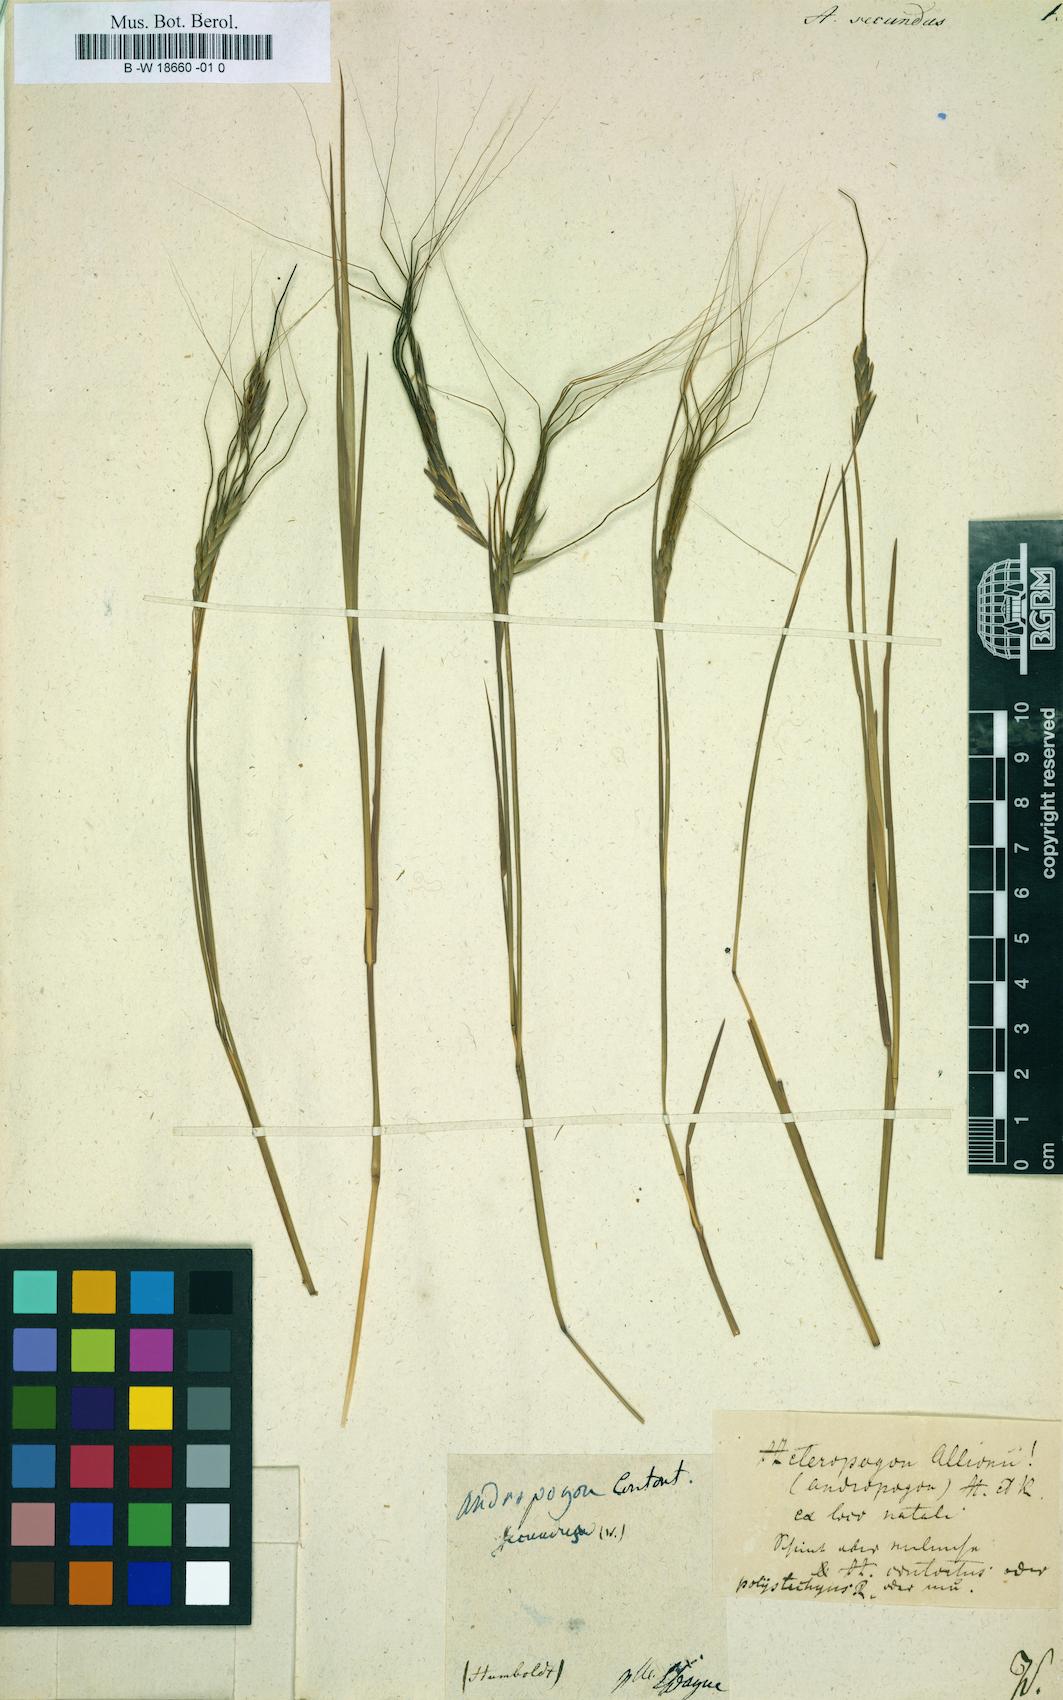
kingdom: Plantae
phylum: Tracheophyta
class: Liliopsida
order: Poales
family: Poaceae
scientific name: Poaceae
